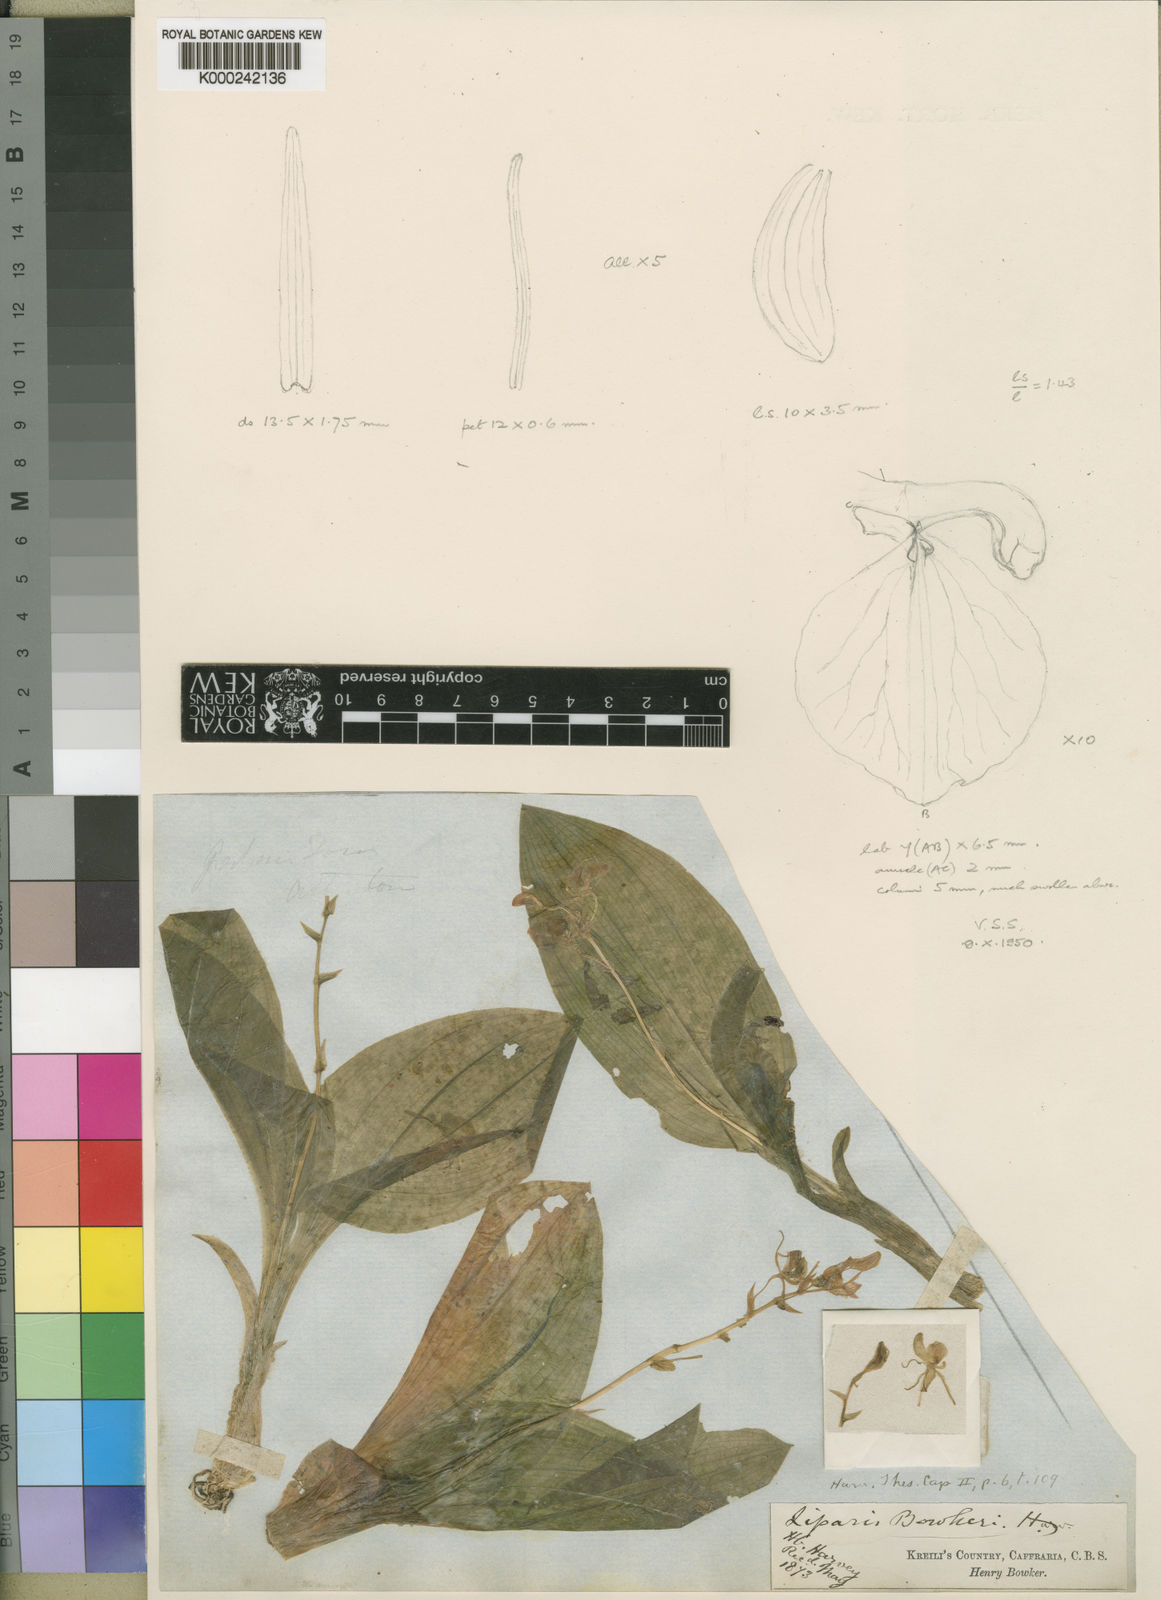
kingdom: Plantae
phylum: Tracheophyta
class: Liliopsida
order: Asparagales
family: Orchidaceae
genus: Liparis
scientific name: Liparis bowkeri
